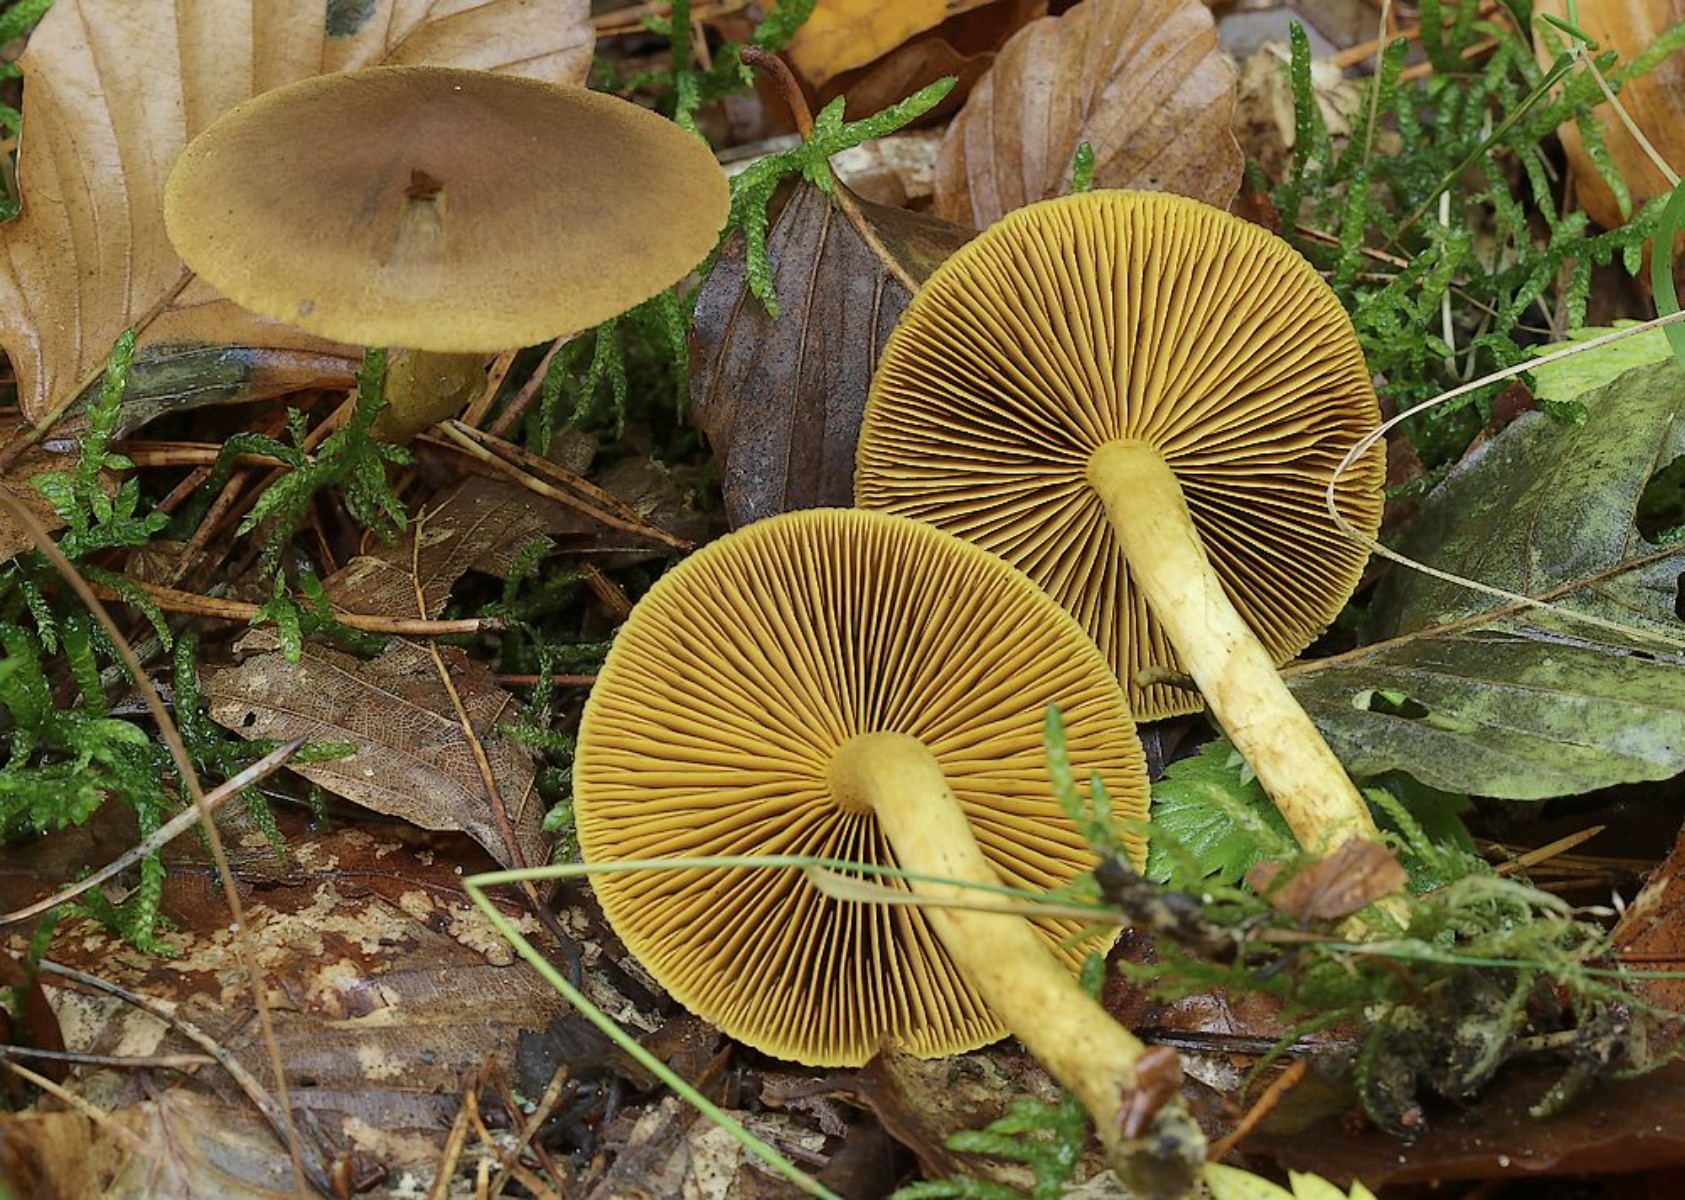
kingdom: Fungi
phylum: Basidiomycota
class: Agaricomycetes
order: Agaricales
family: Cortinariaceae
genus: Cortinarius
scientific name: Cortinarius malicorius
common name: grønkødet slørhat
